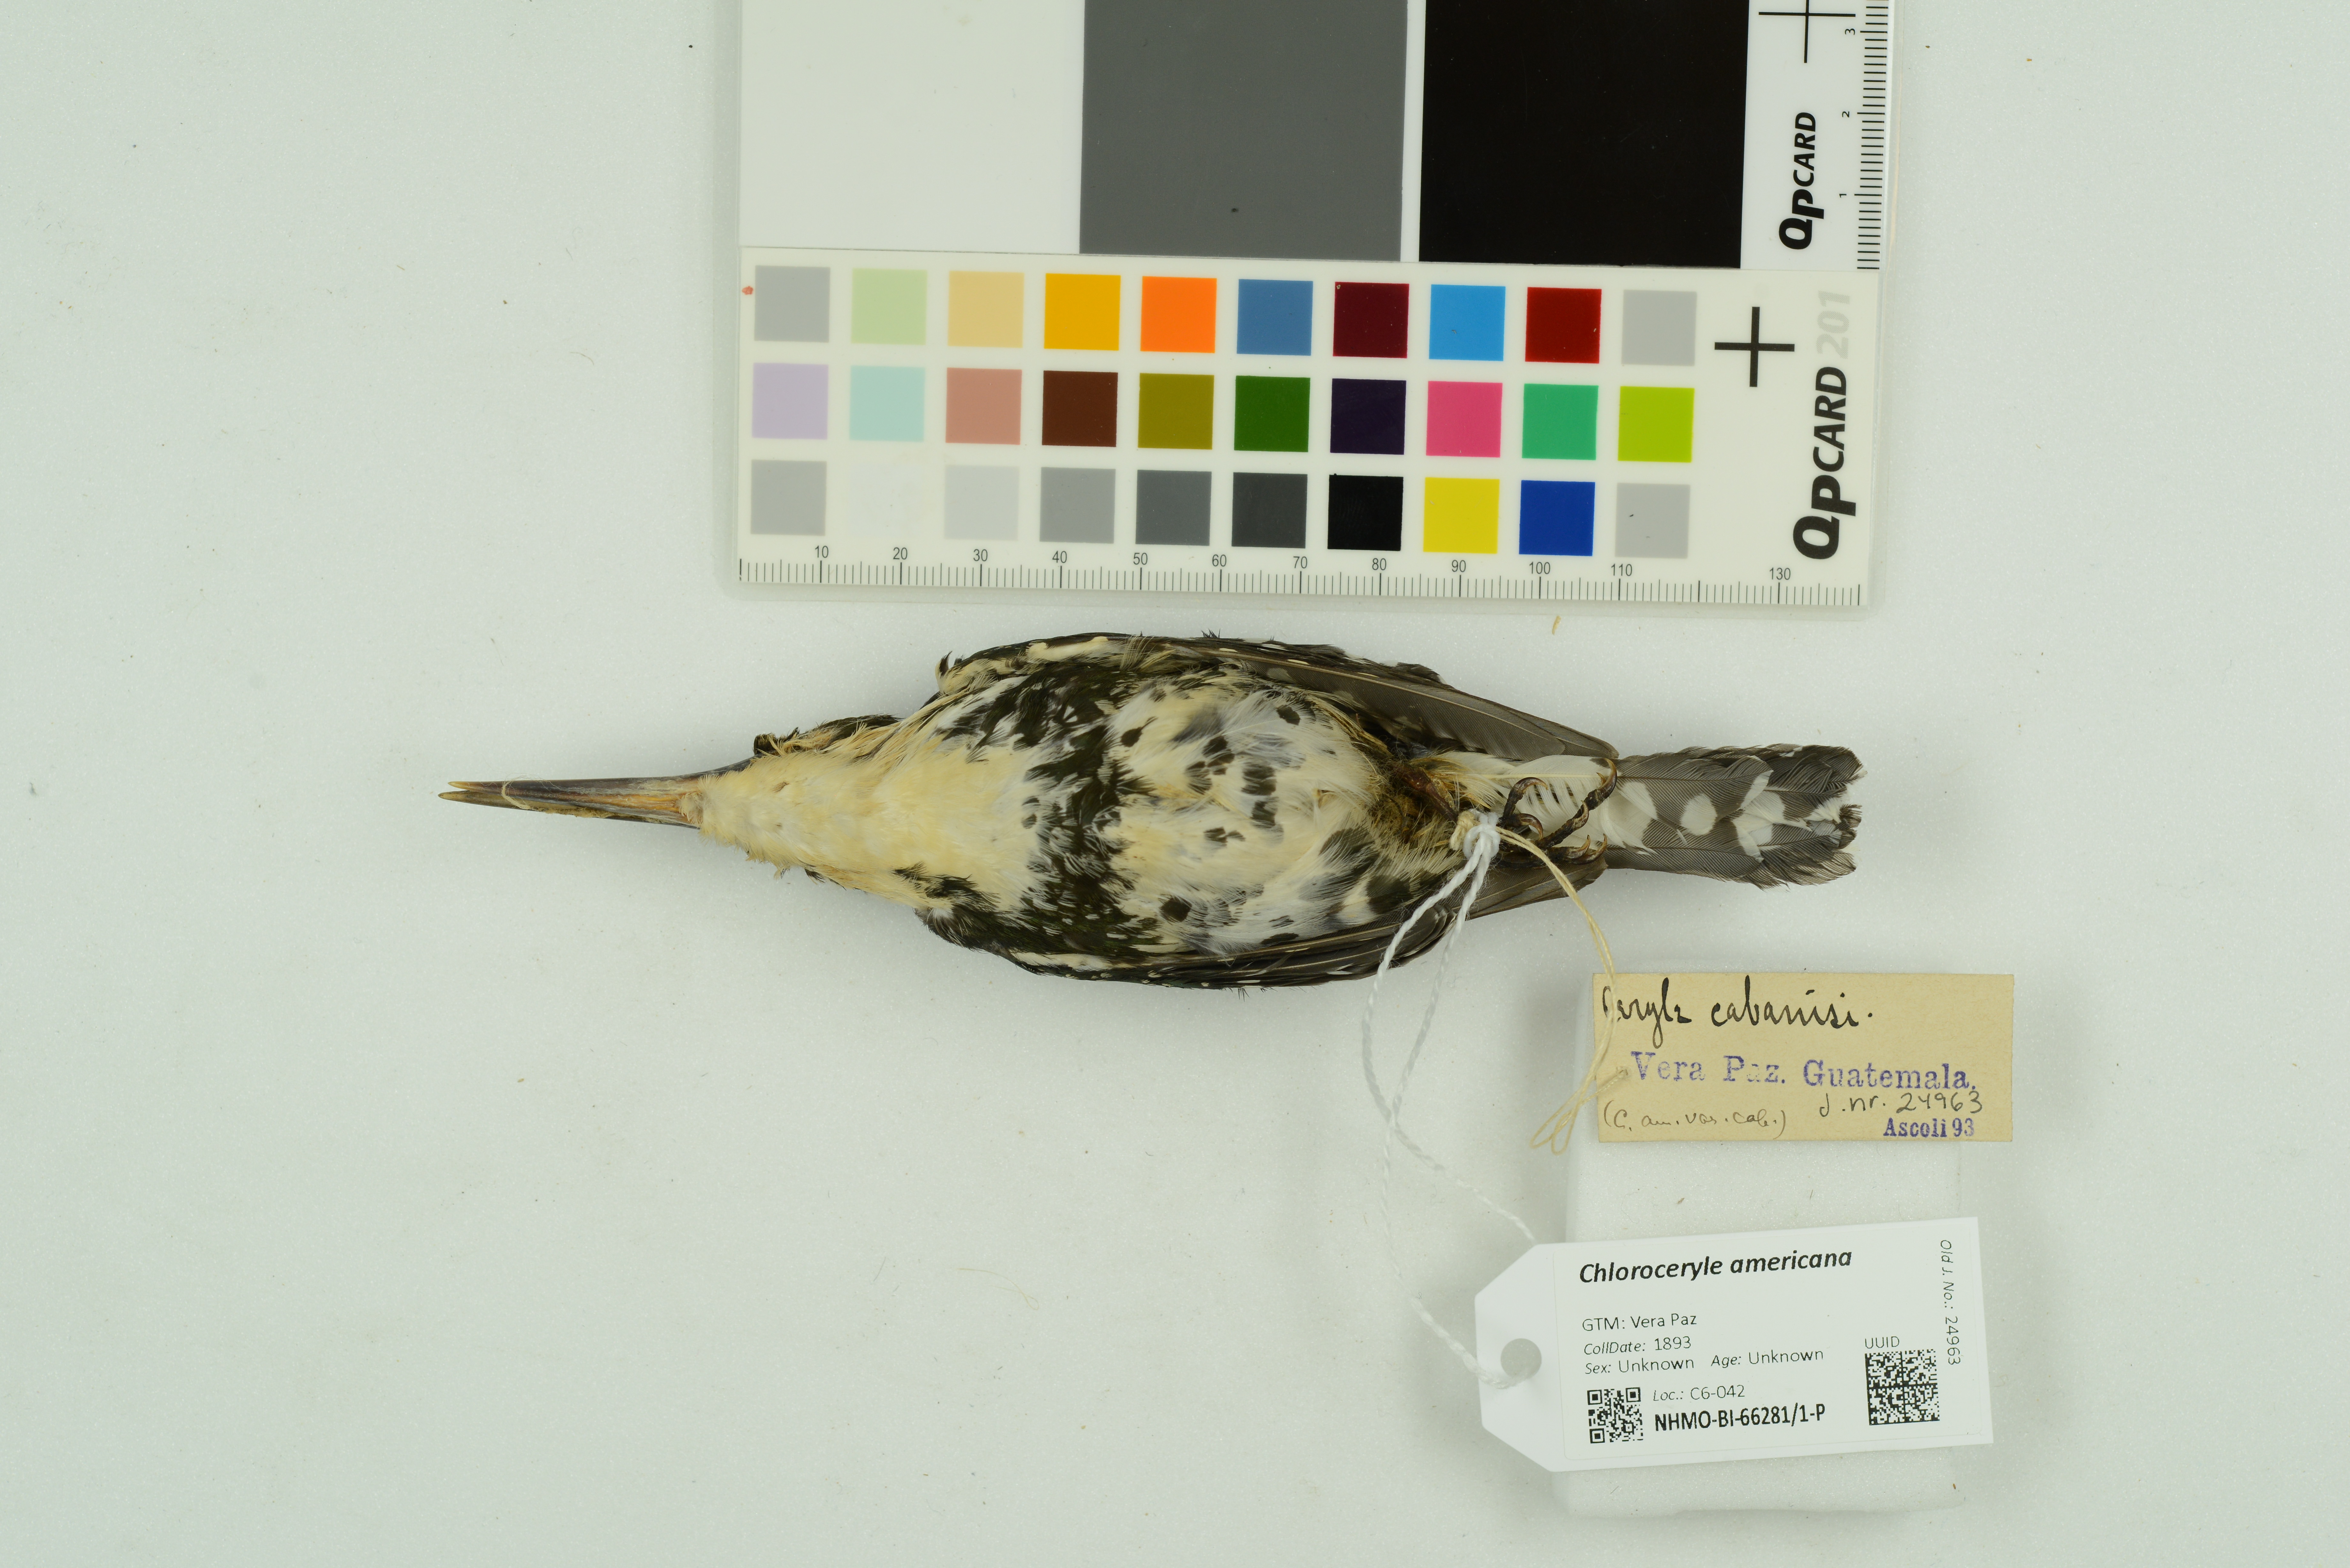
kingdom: Animalia
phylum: Chordata
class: Aves
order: Coraciiformes
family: Alcedinidae
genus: Chloroceryle
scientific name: Chloroceryle americana
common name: Green kingfisher
